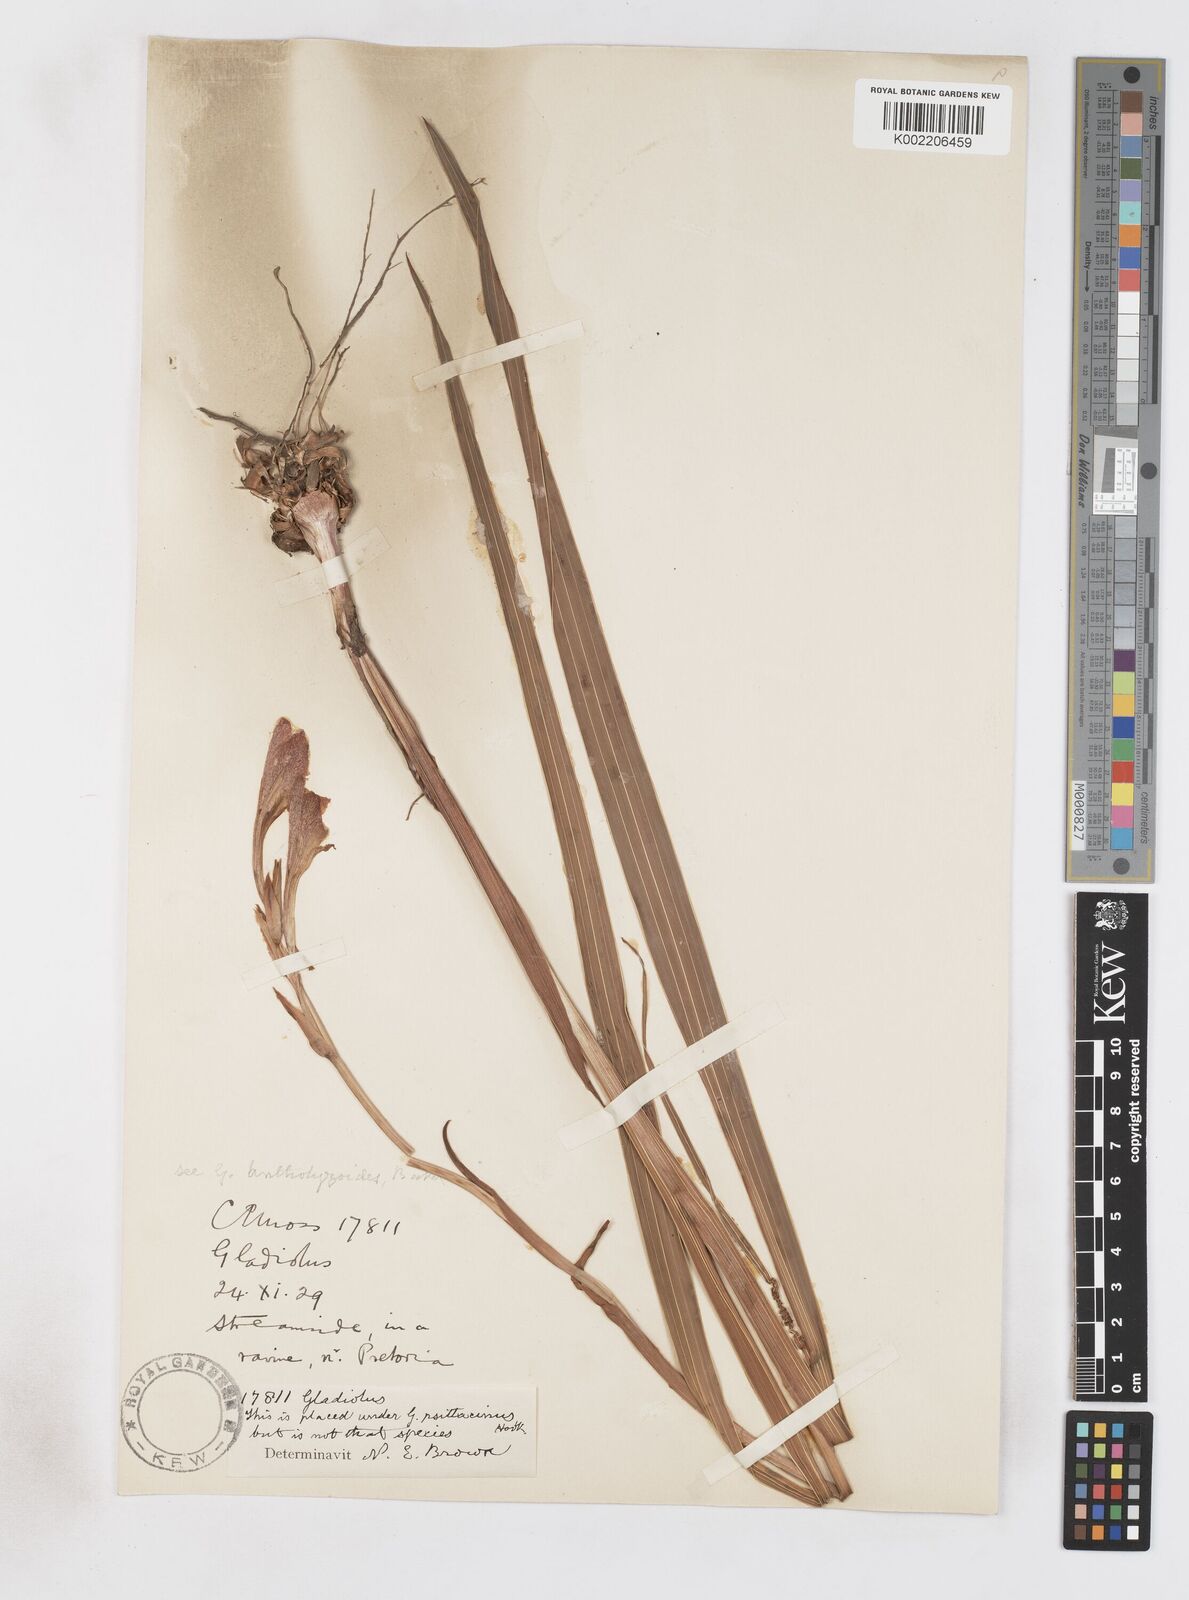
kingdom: Plantae
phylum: Tracheophyta
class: Liliopsida
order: Asparagales
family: Iridaceae
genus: Gladiolus
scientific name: Gladiolus antholyzoides
